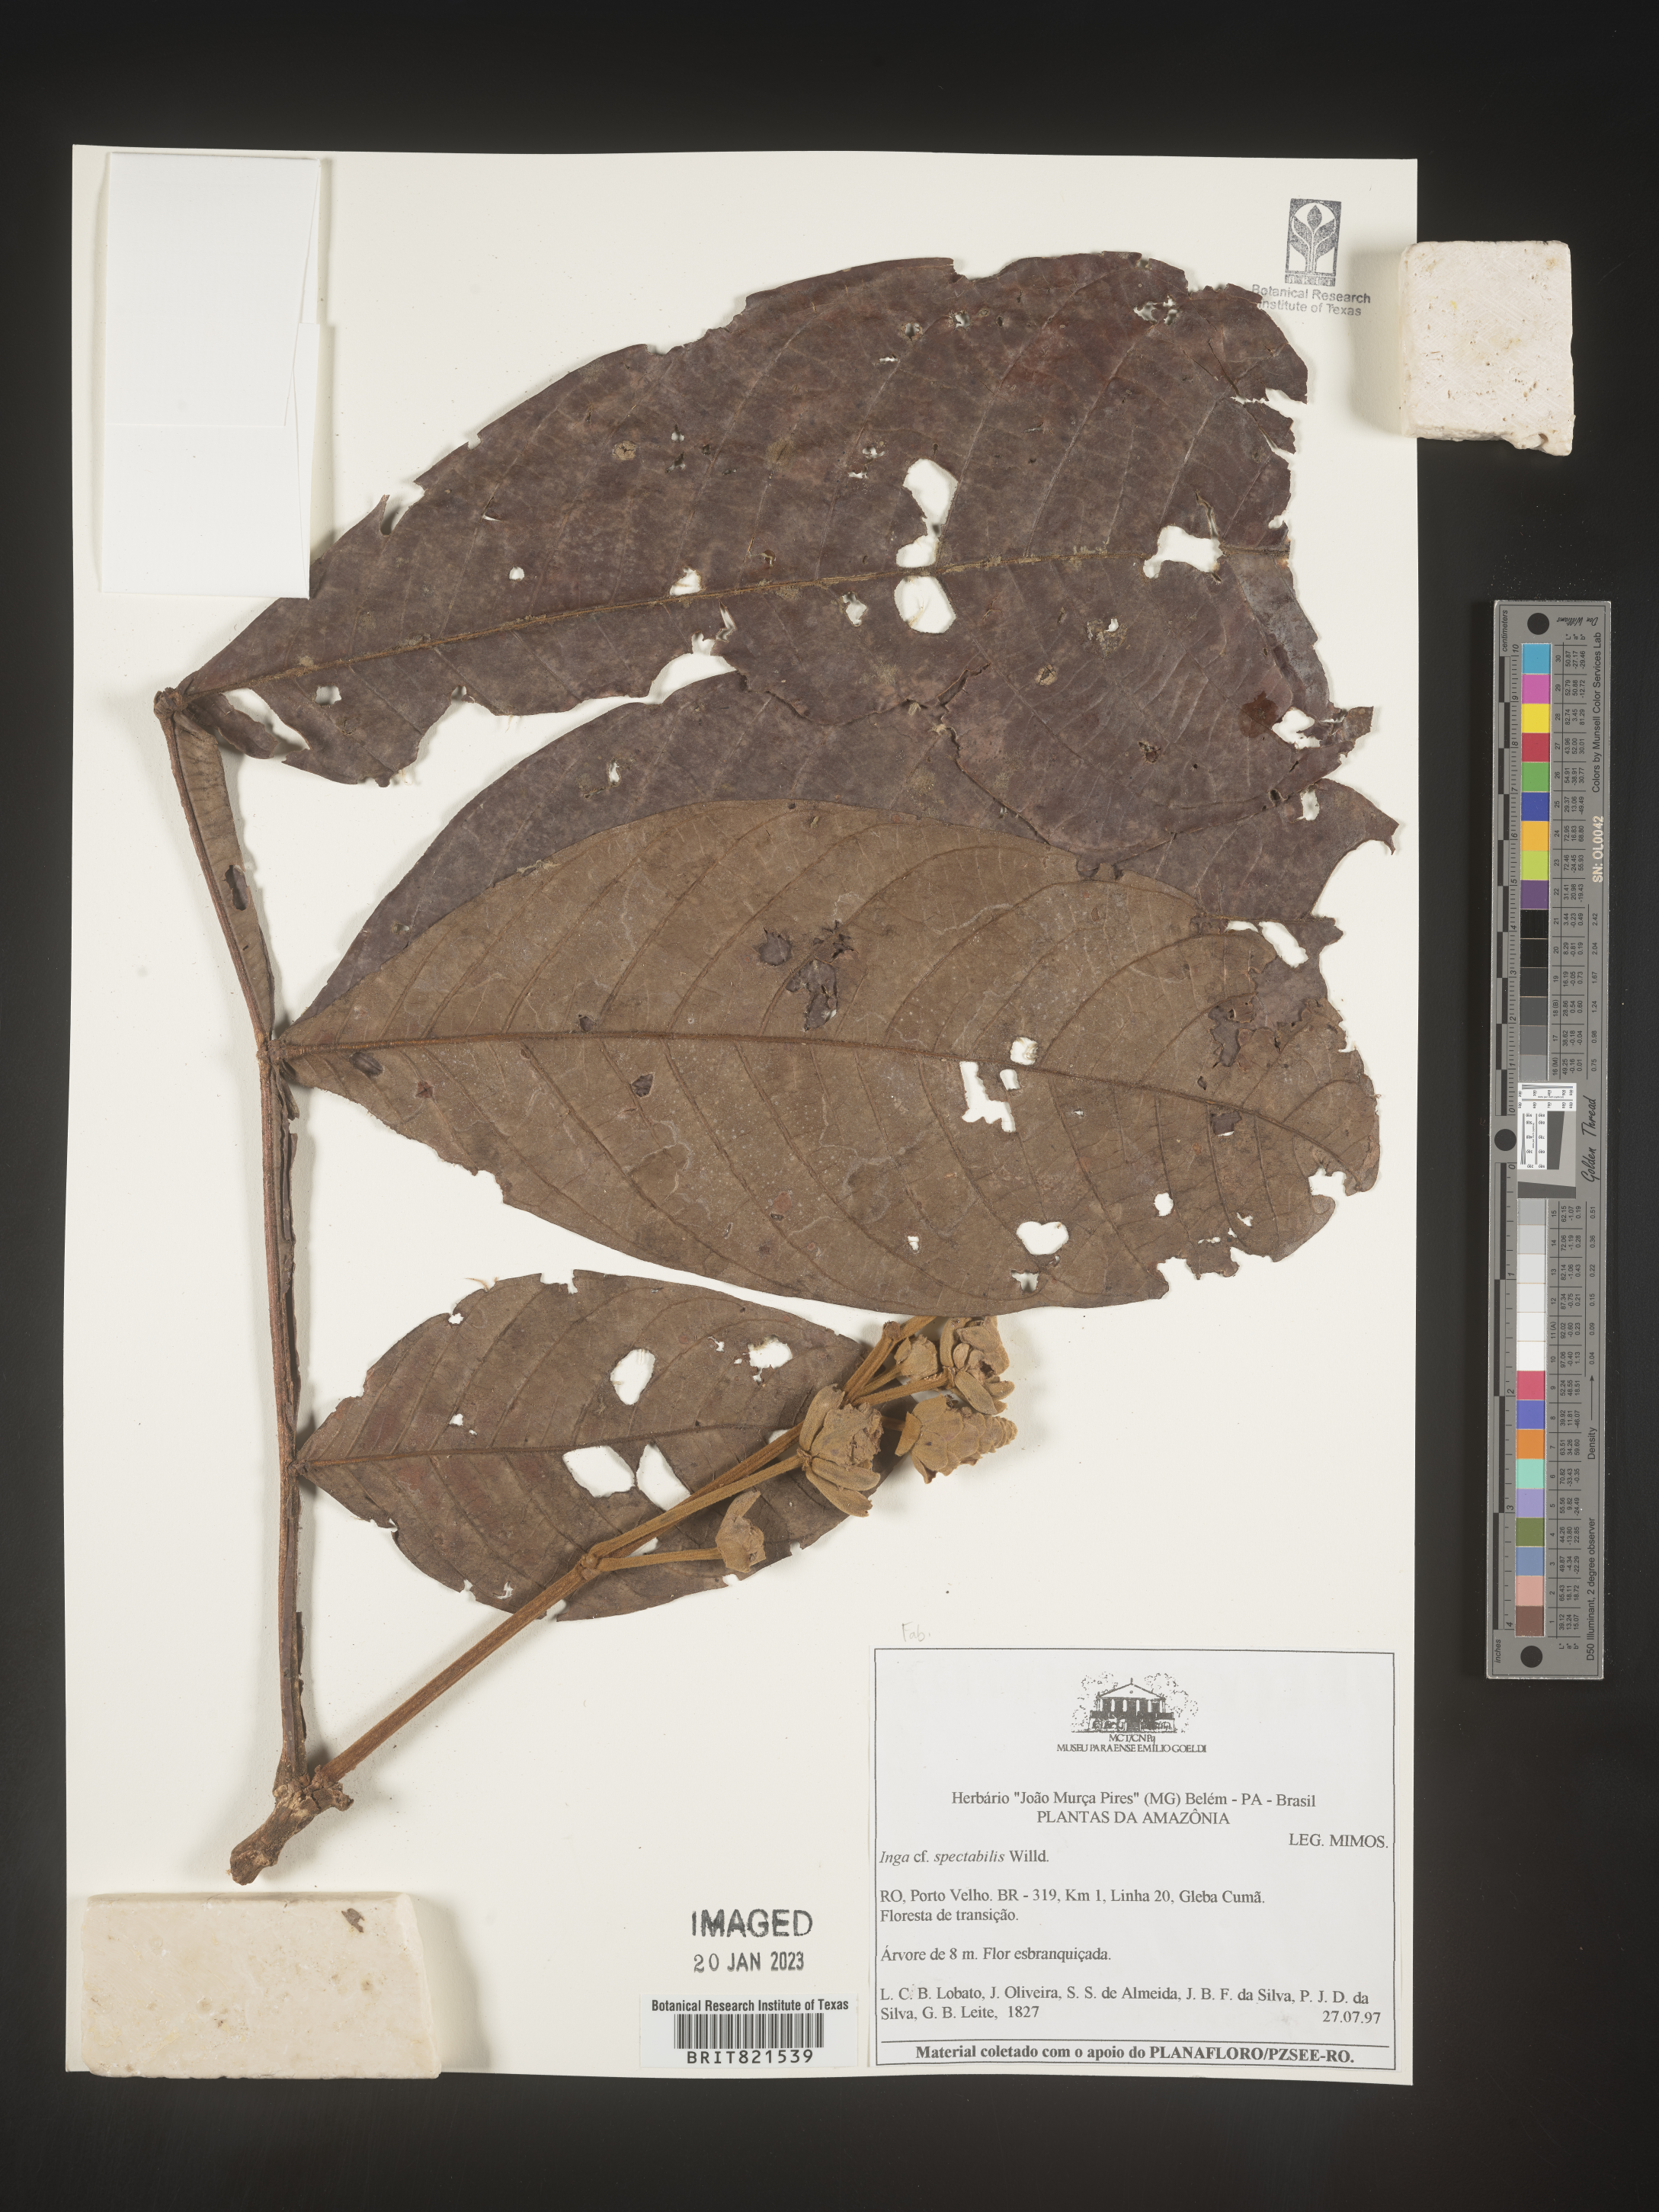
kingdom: Plantae
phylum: Tracheophyta
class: Magnoliopsida
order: Fabales
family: Fabaceae
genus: Inga
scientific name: Inga
